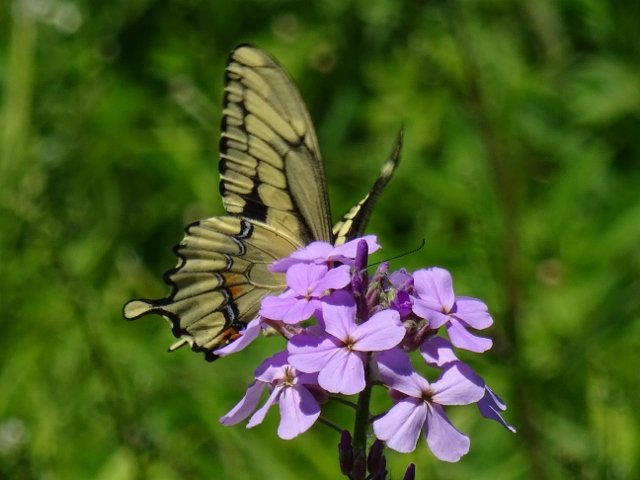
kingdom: Animalia
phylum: Arthropoda
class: Insecta
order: Lepidoptera
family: Papilionidae
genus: Papilio
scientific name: Papilio cresphontes
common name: Eastern Giant Swallowtail
